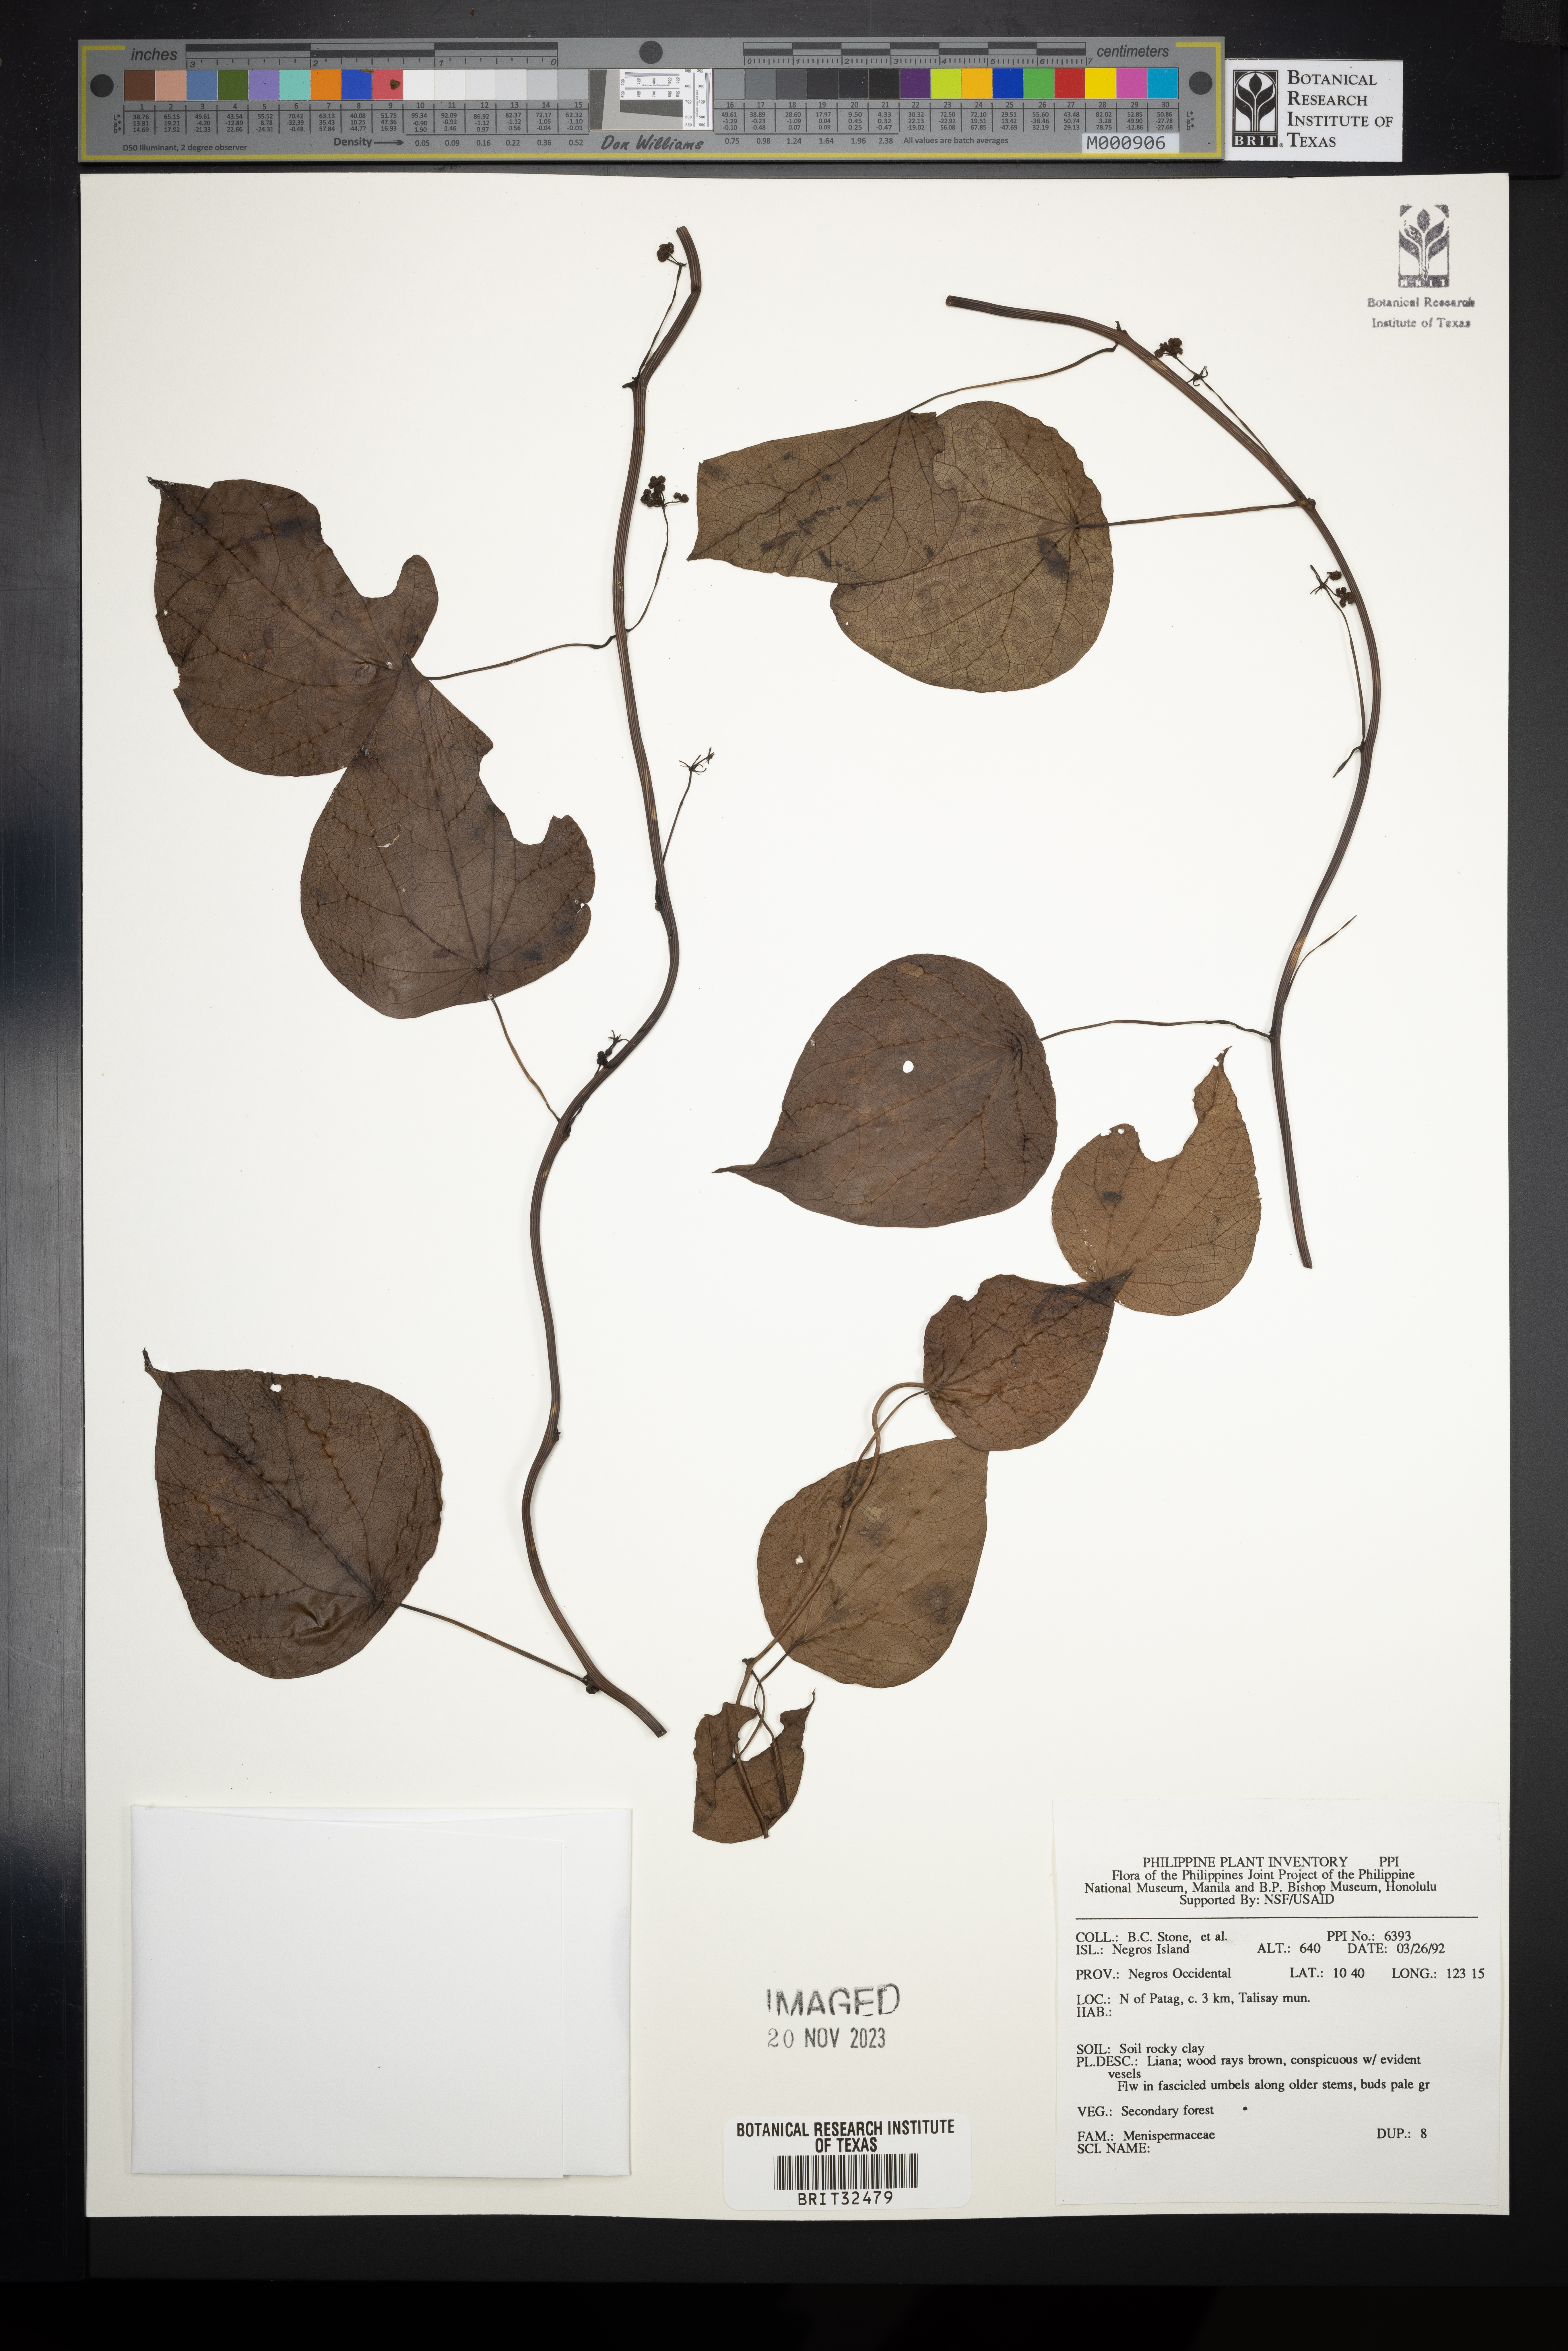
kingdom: Plantae
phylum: Tracheophyta
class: Magnoliopsida
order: Ranunculales
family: Menispermaceae
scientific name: Menispermaceae
